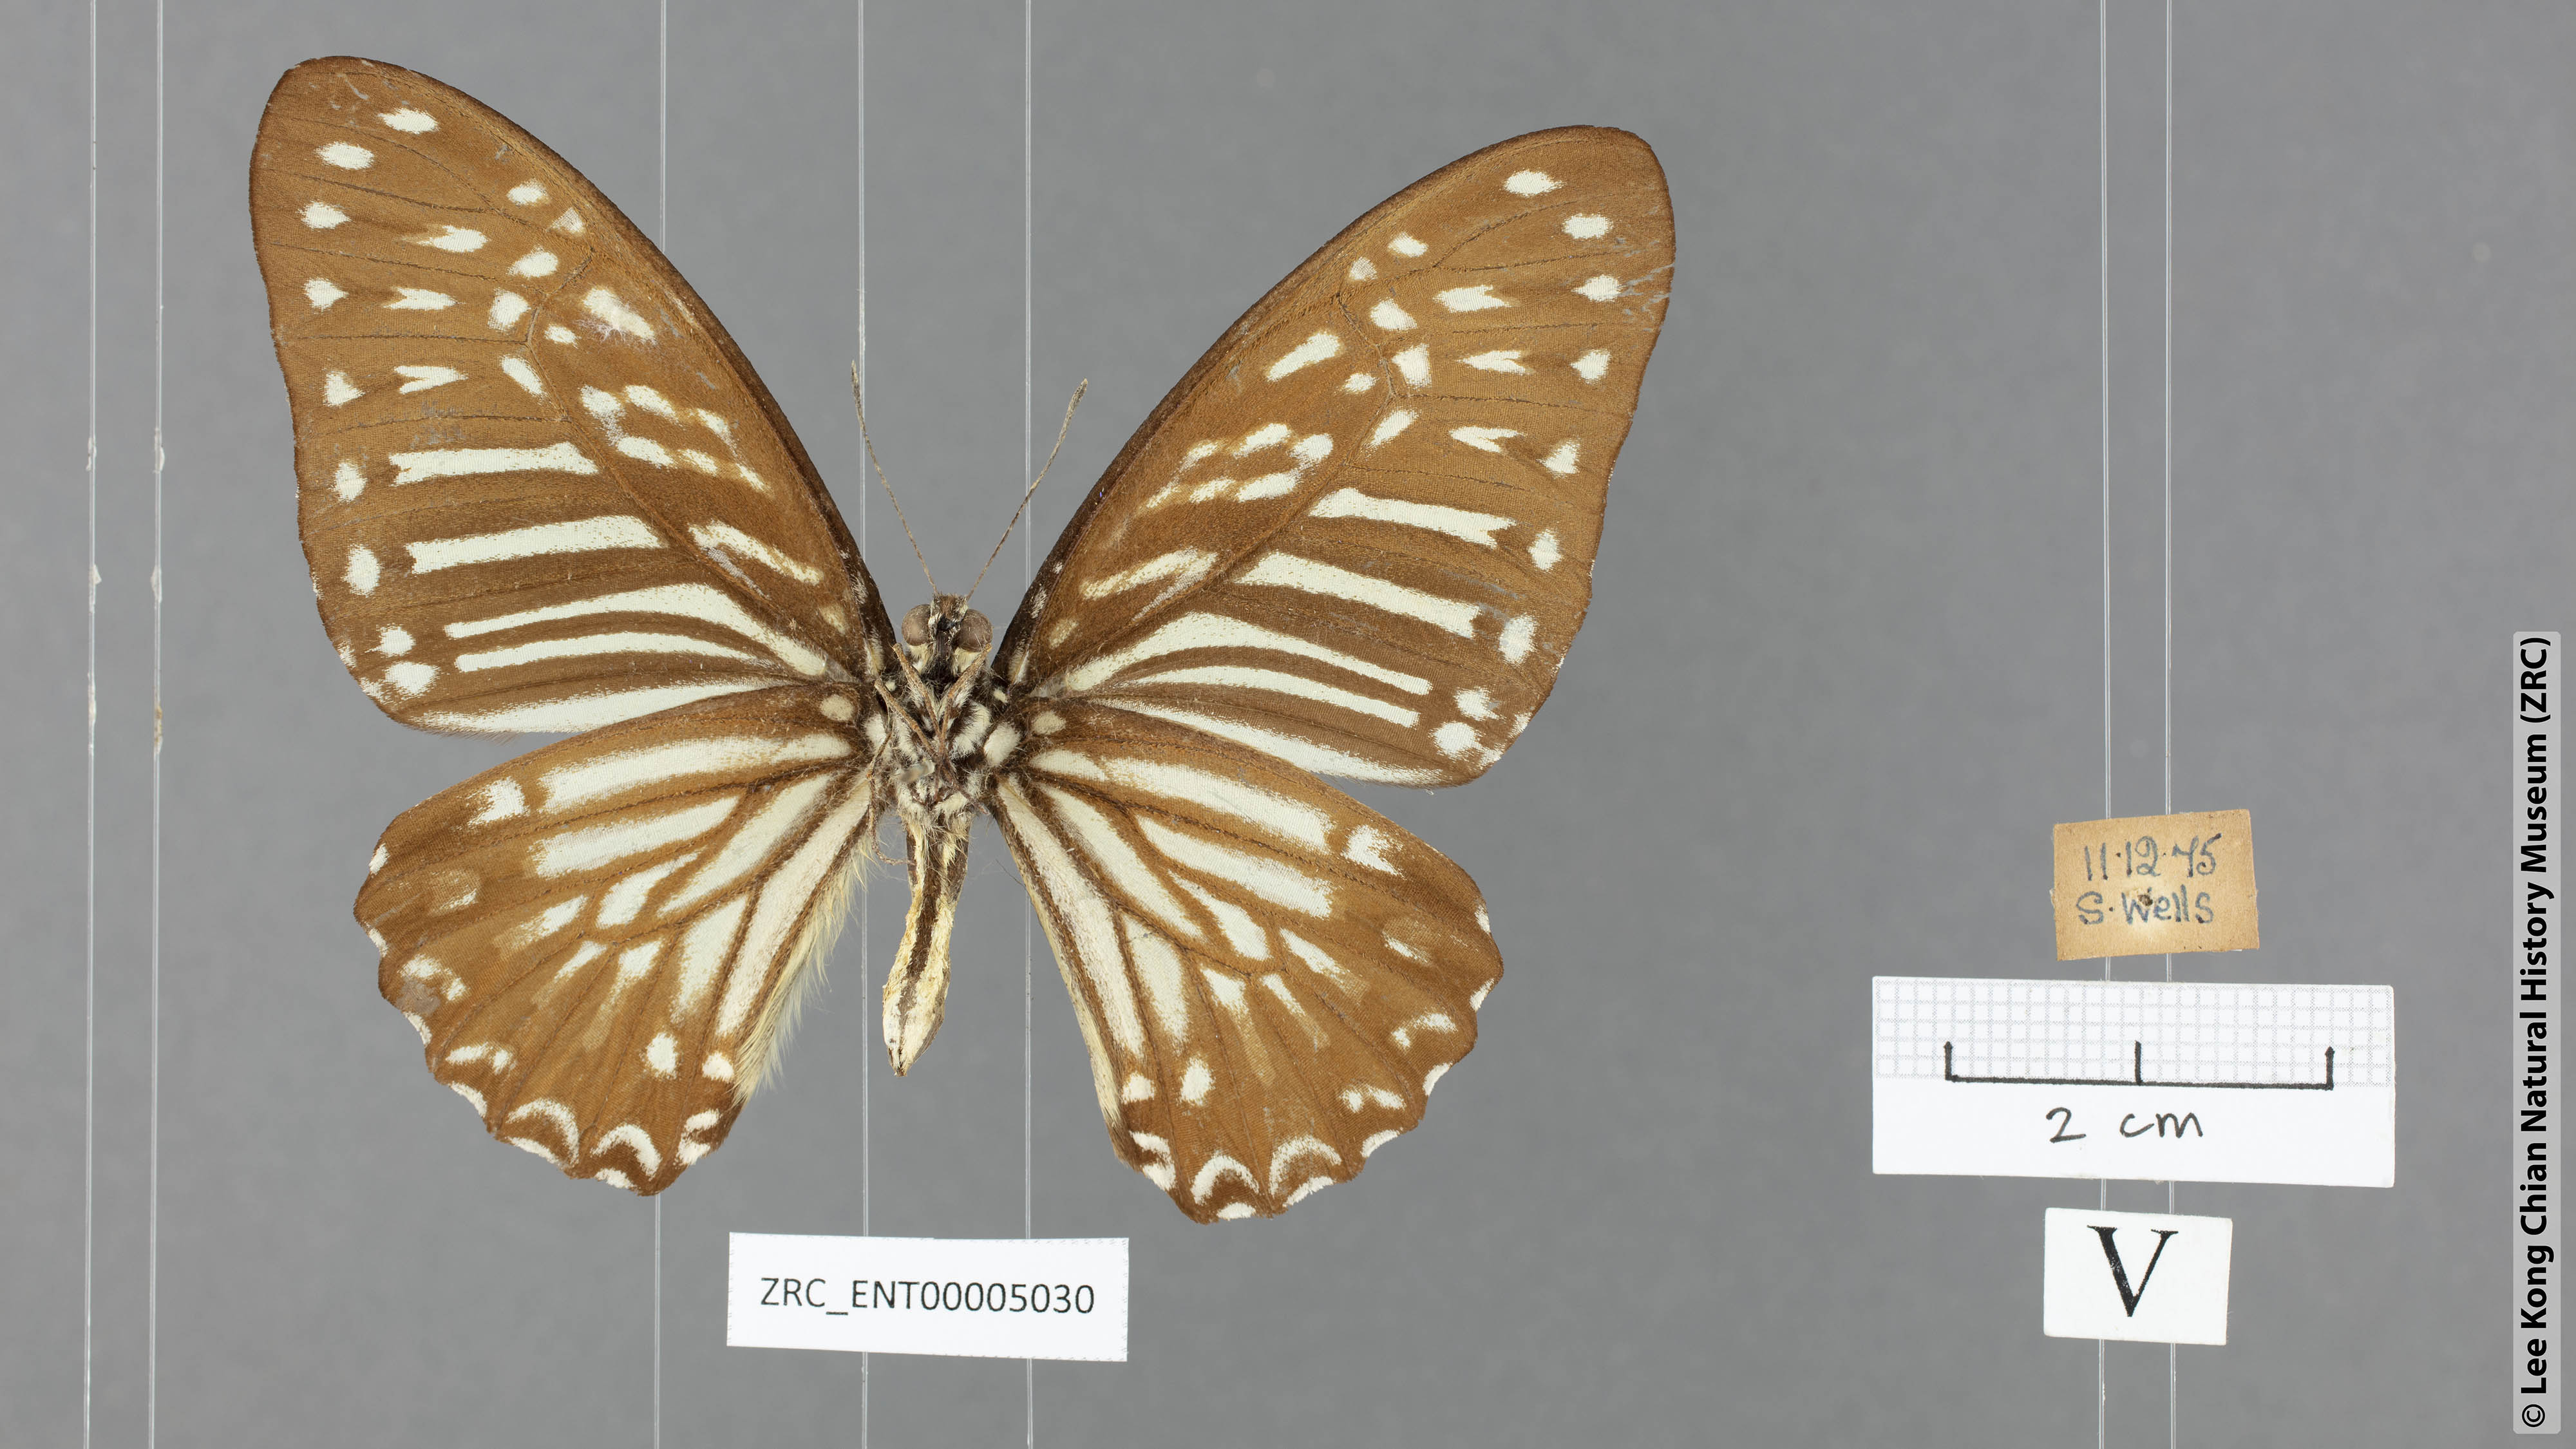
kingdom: Animalia
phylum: Arthropoda
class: Insecta
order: Lepidoptera
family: Papilionidae
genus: Graphium
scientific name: Graphium macareus
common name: Lesser zebra
